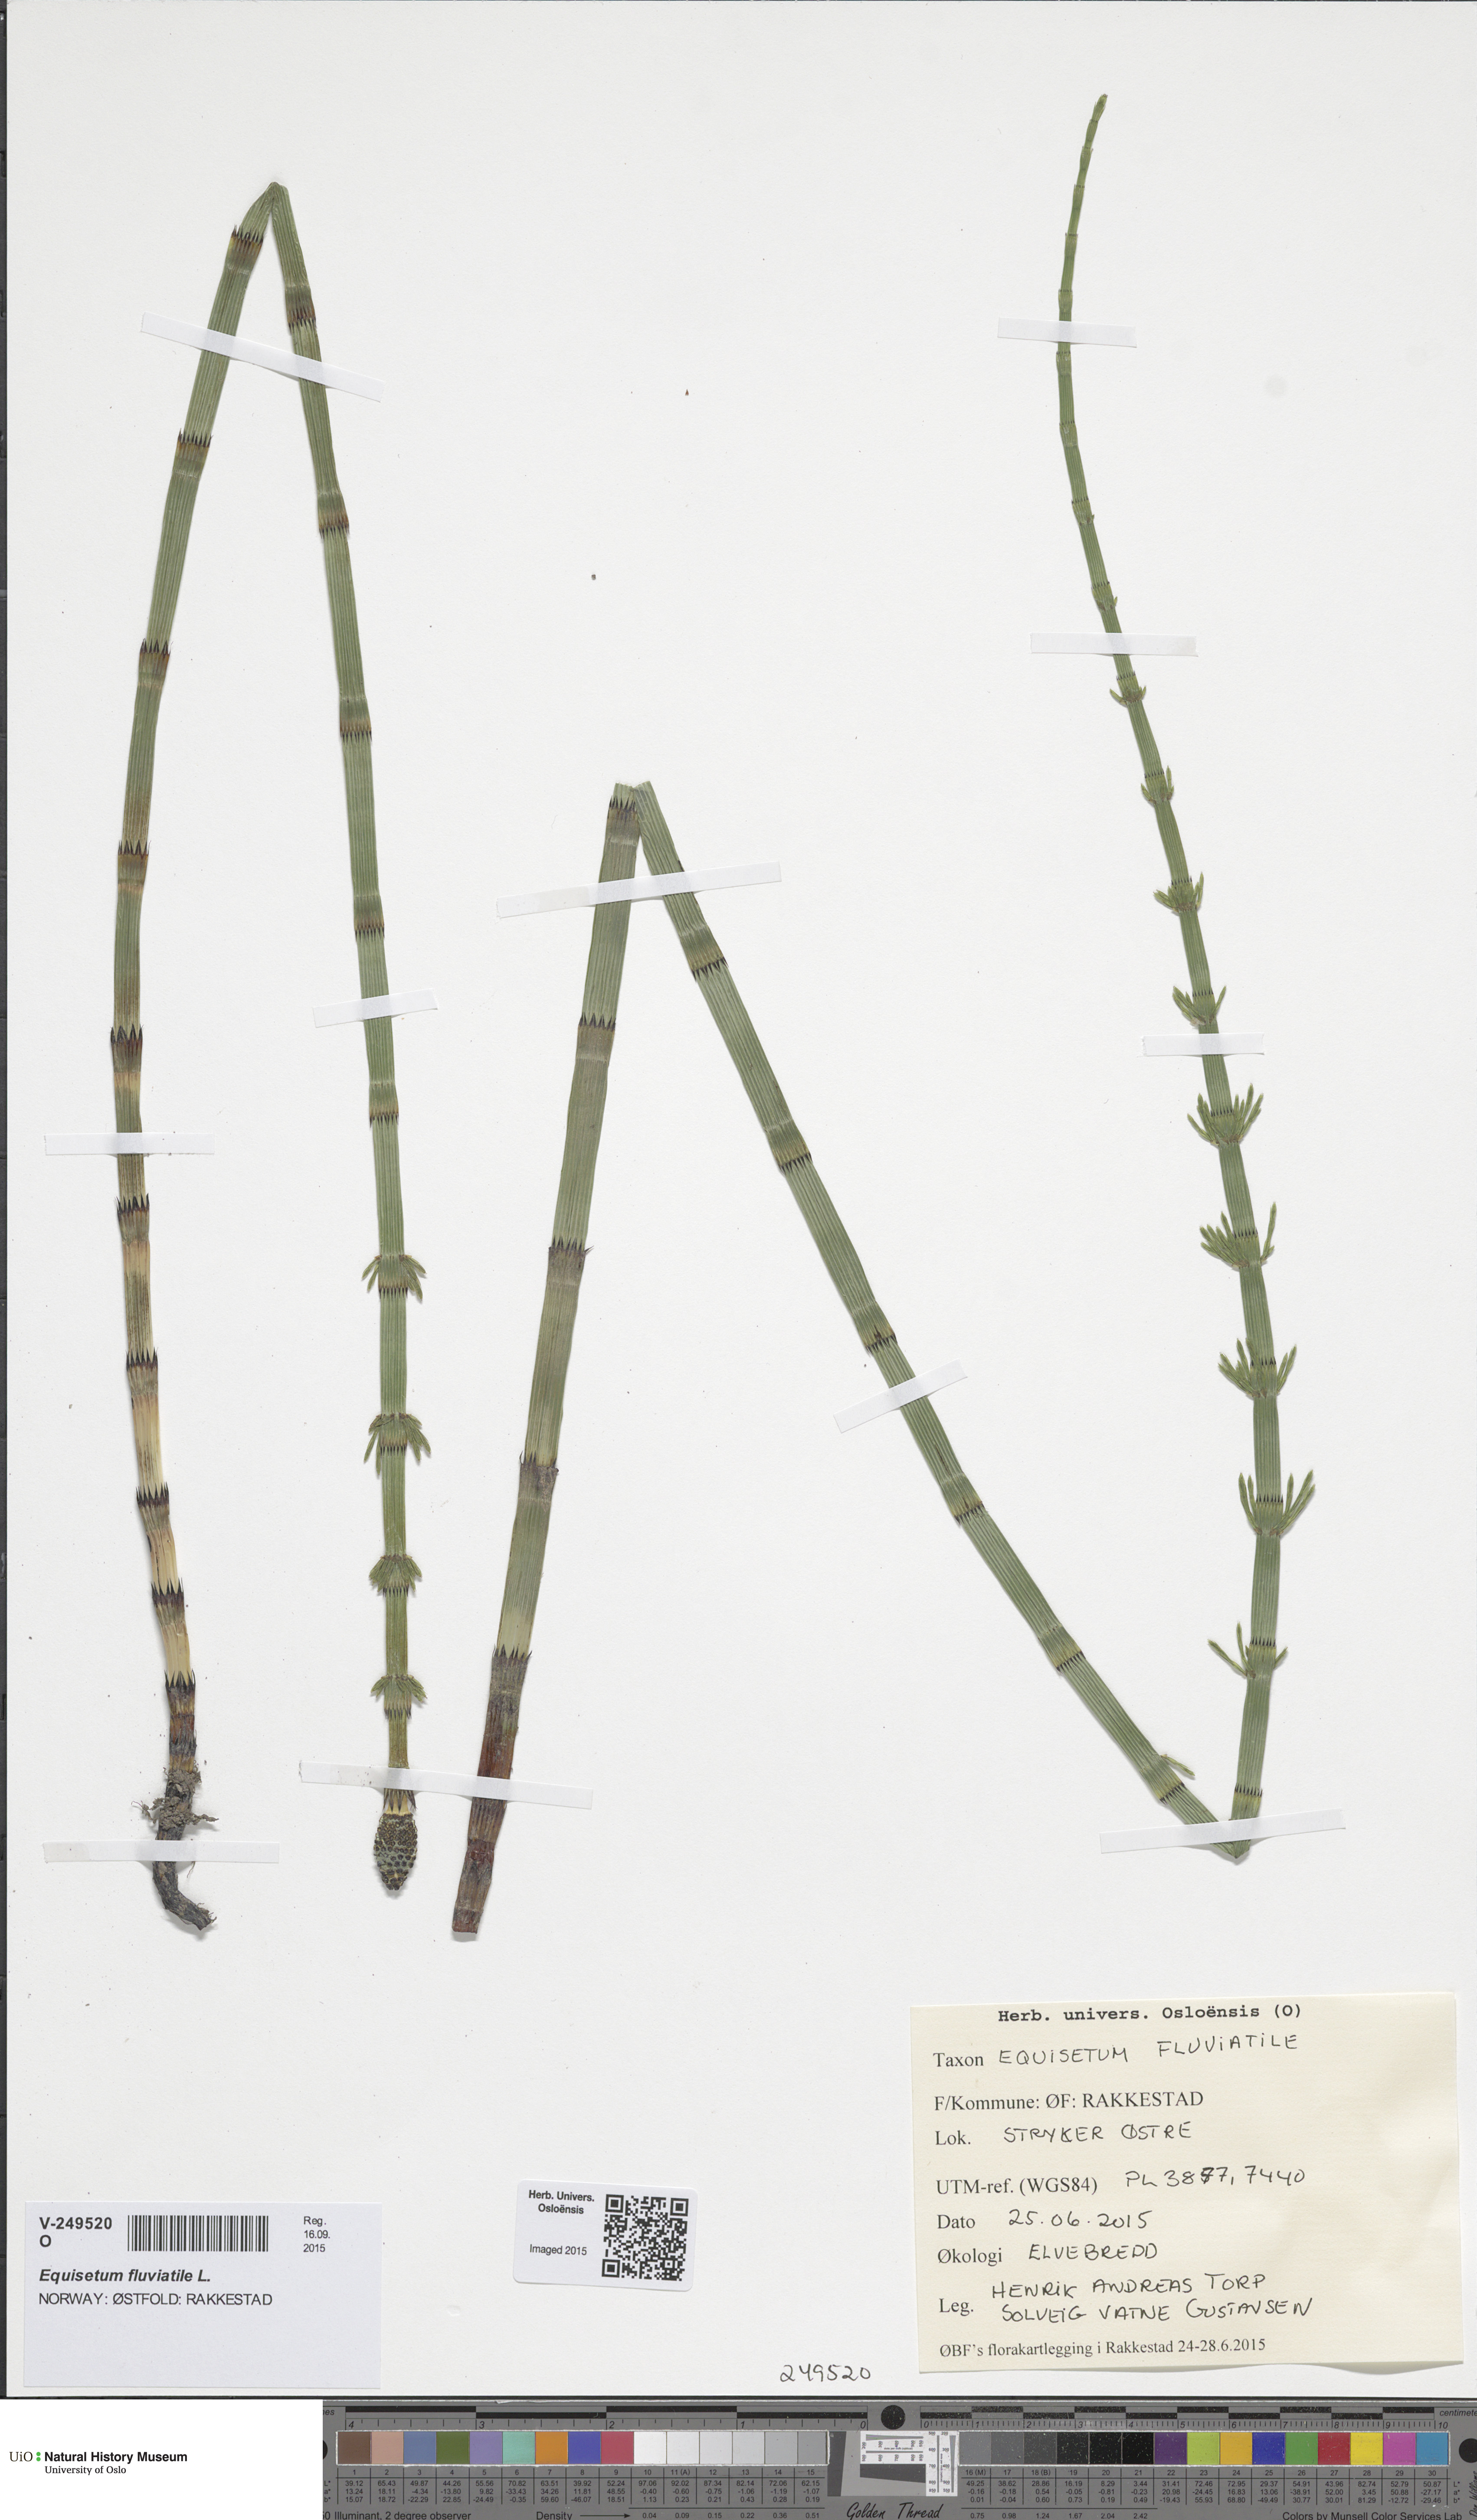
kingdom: Plantae
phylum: Tracheophyta
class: Polypodiopsida
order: Equisetales
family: Equisetaceae
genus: Equisetum
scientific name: Equisetum fluviatile
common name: Water horsetail
